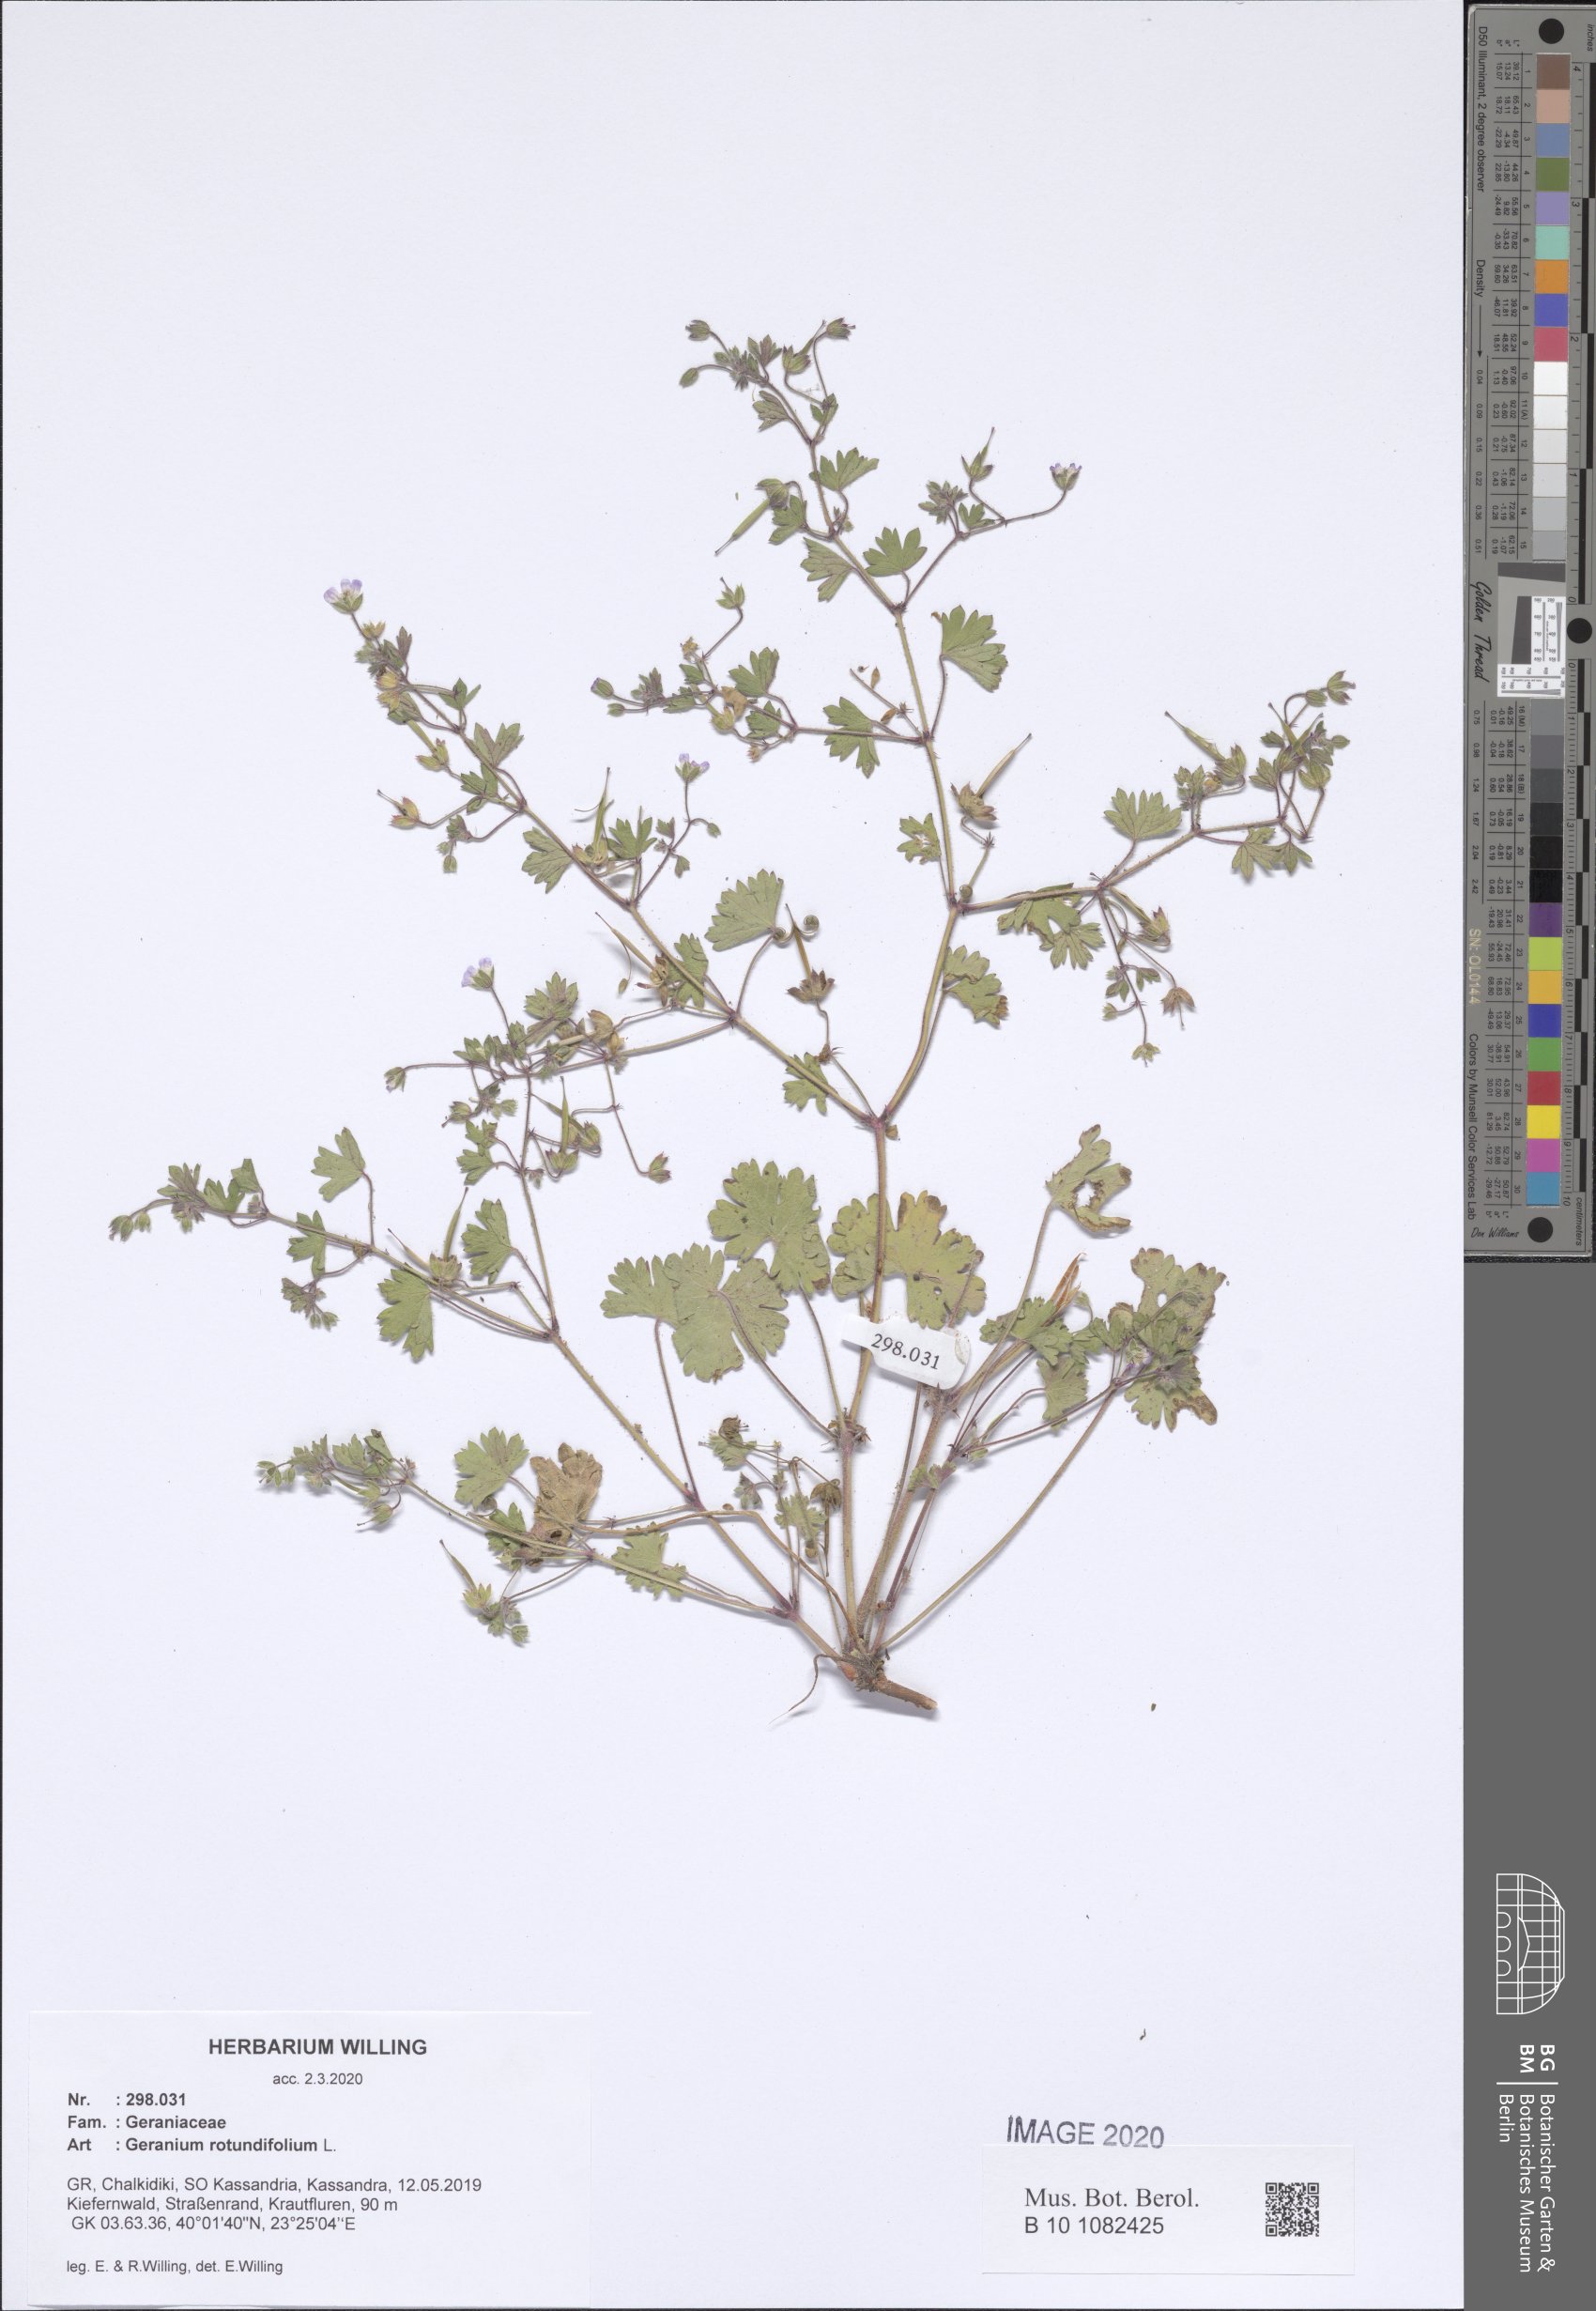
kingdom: Plantae
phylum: Tracheophyta
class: Magnoliopsida
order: Geraniales
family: Geraniaceae
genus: Geranium
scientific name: Geranium rotundifolium
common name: Round-leaved crane's-bill
